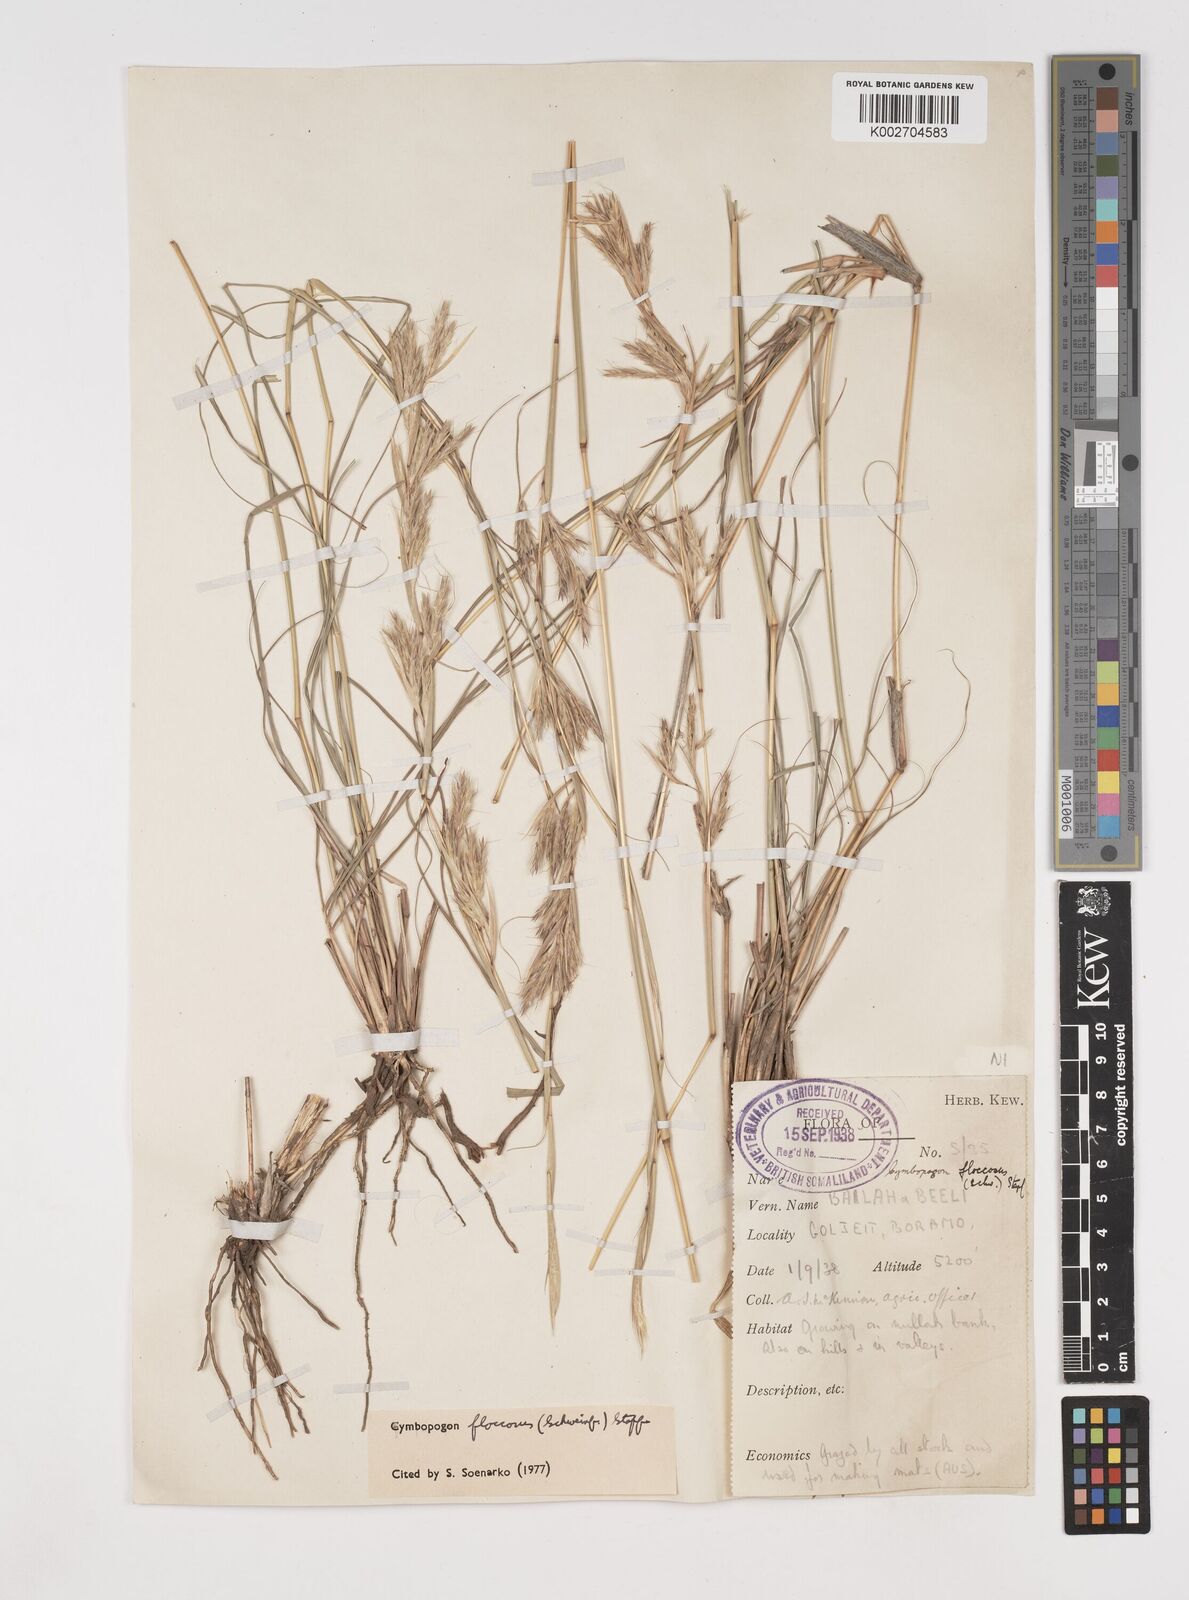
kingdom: Plantae
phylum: Tracheophyta
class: Liliopsida
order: Poales
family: Poaceae
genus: Cymbopogon
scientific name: Cymbopogon commutatus
